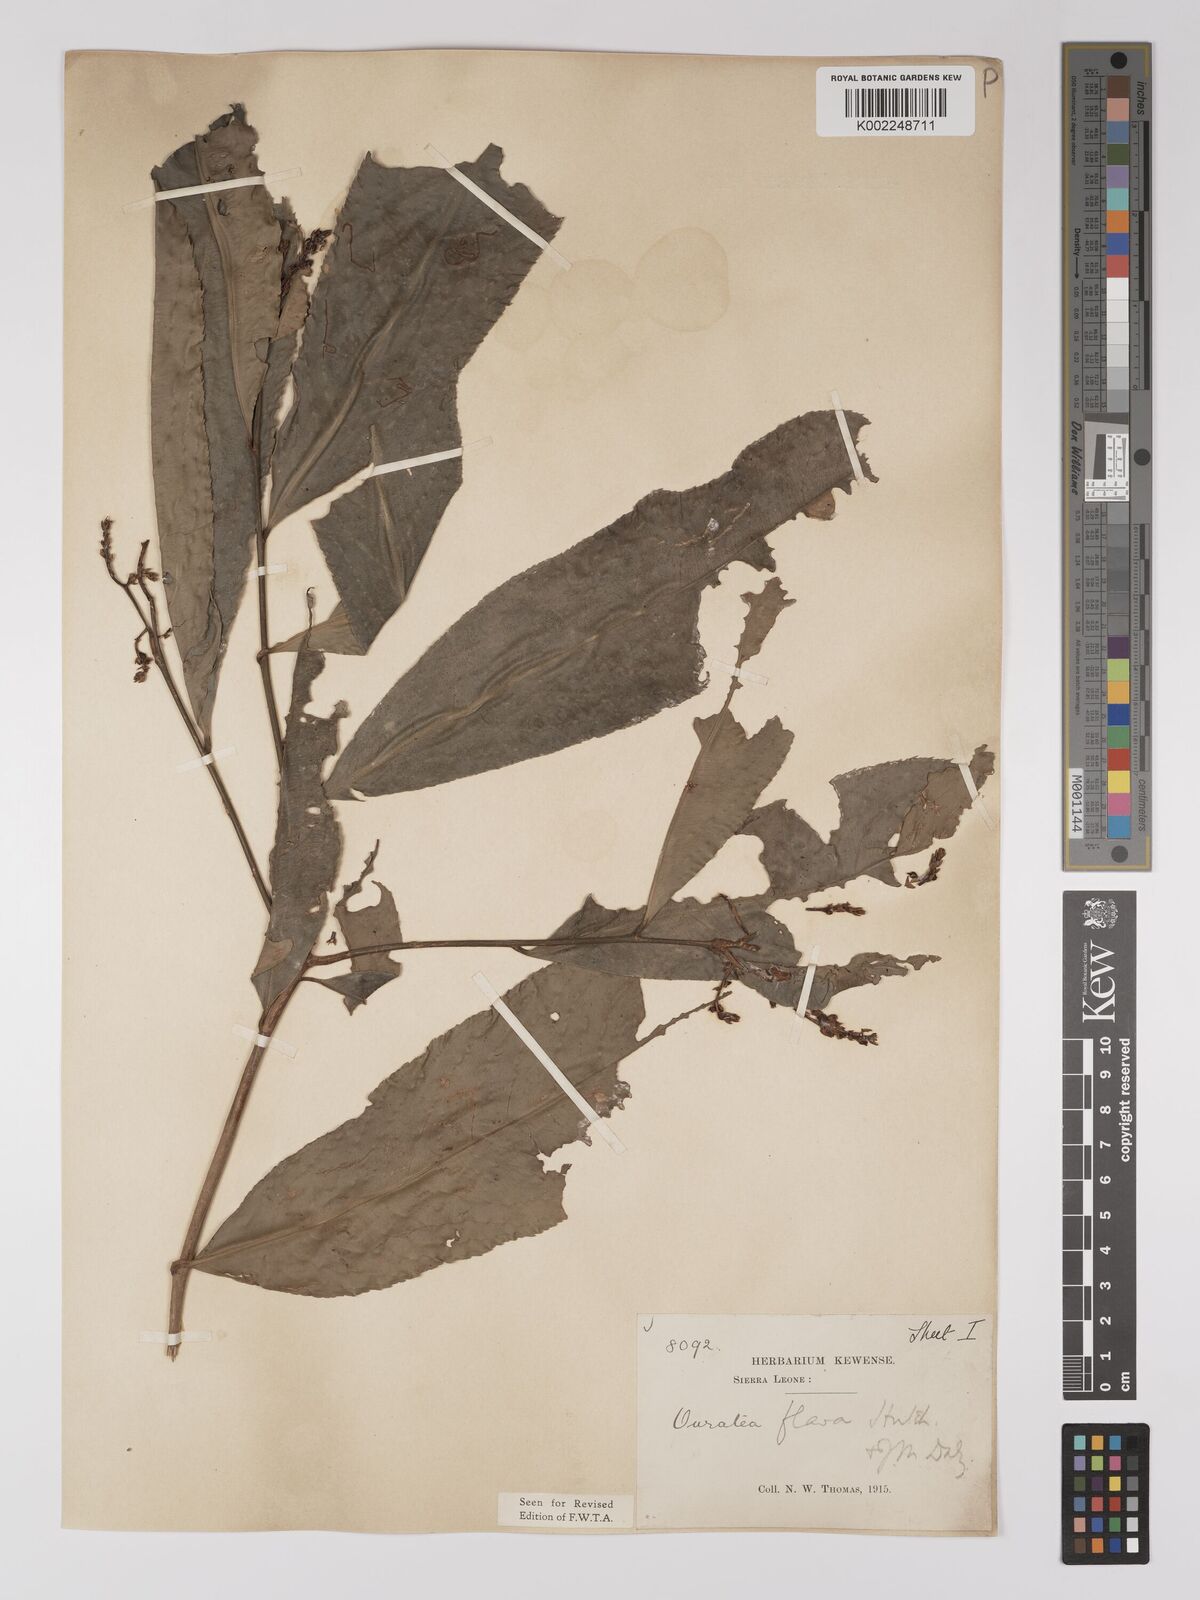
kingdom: Plantae
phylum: Tracheophyta
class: Magnoliopsida
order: Malpighiales
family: Ochnaceae
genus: Campylospermum
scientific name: Campylospermum flavum
